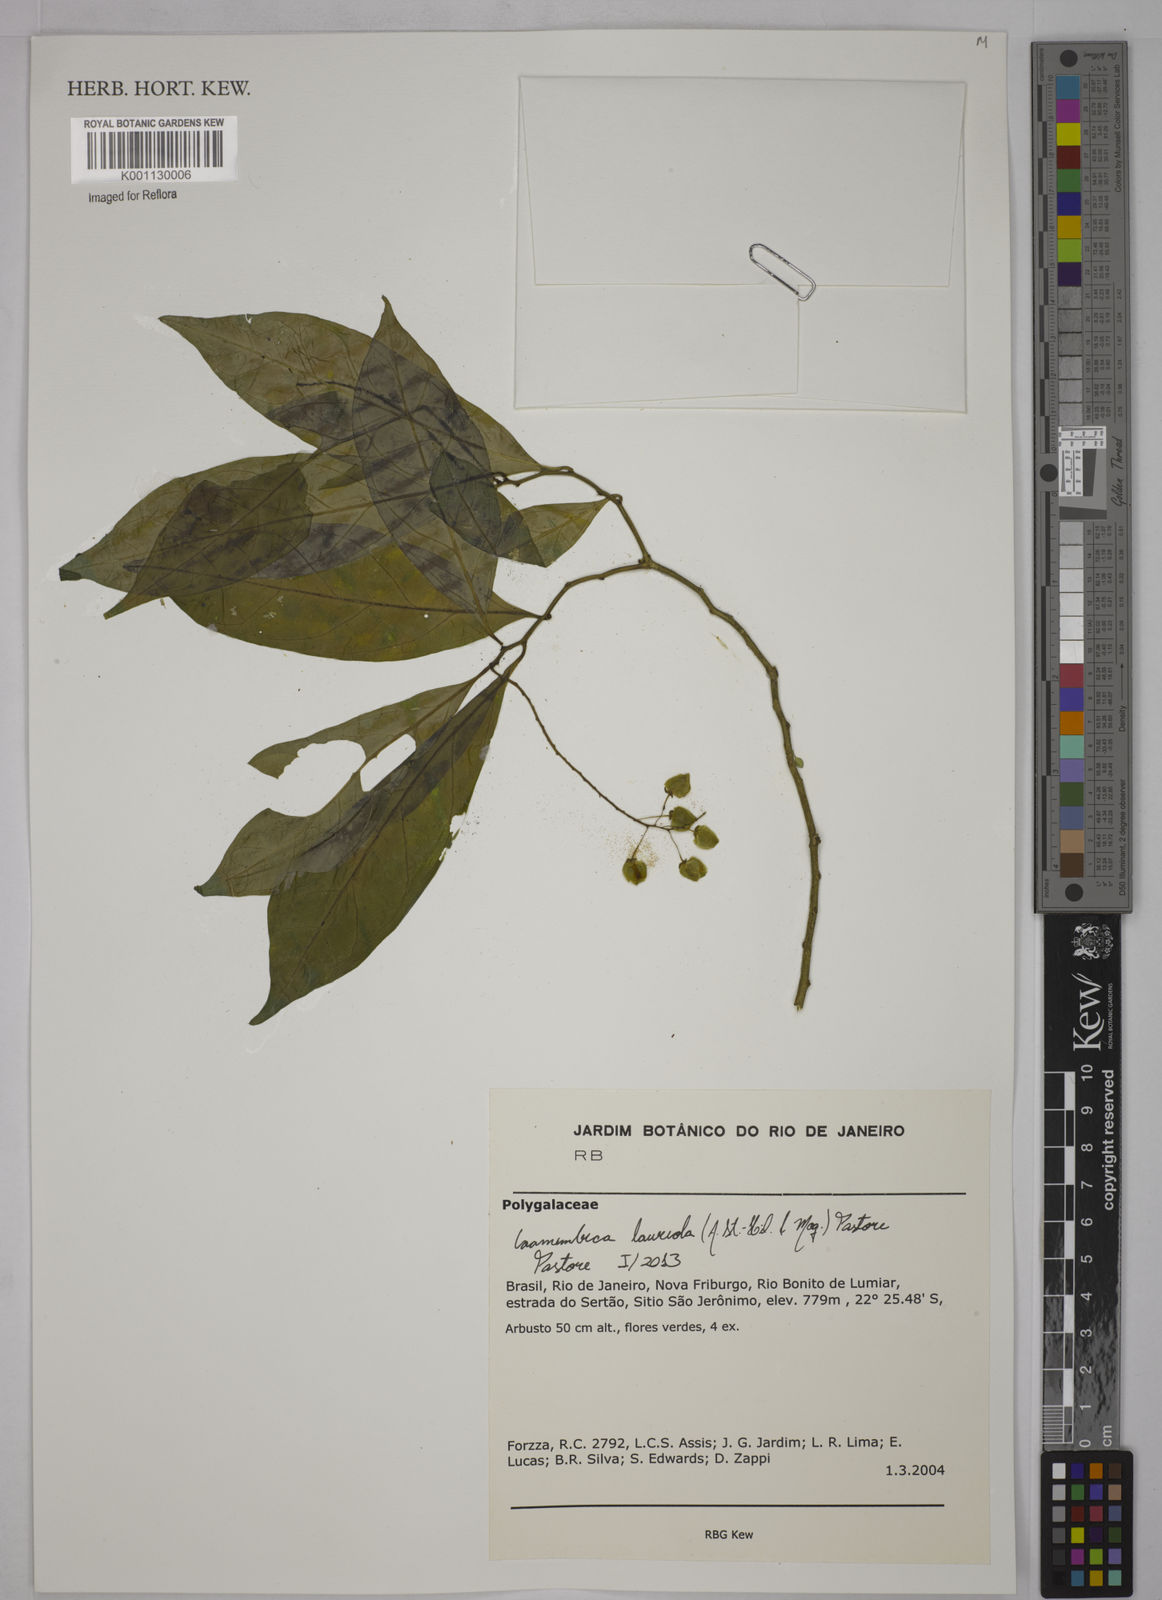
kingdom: Plantae
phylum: Tracheophyta
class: Magnoliopsida
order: Fabales
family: Polygalaceae
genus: Caamembeca
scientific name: Caamembeca salicifolia
